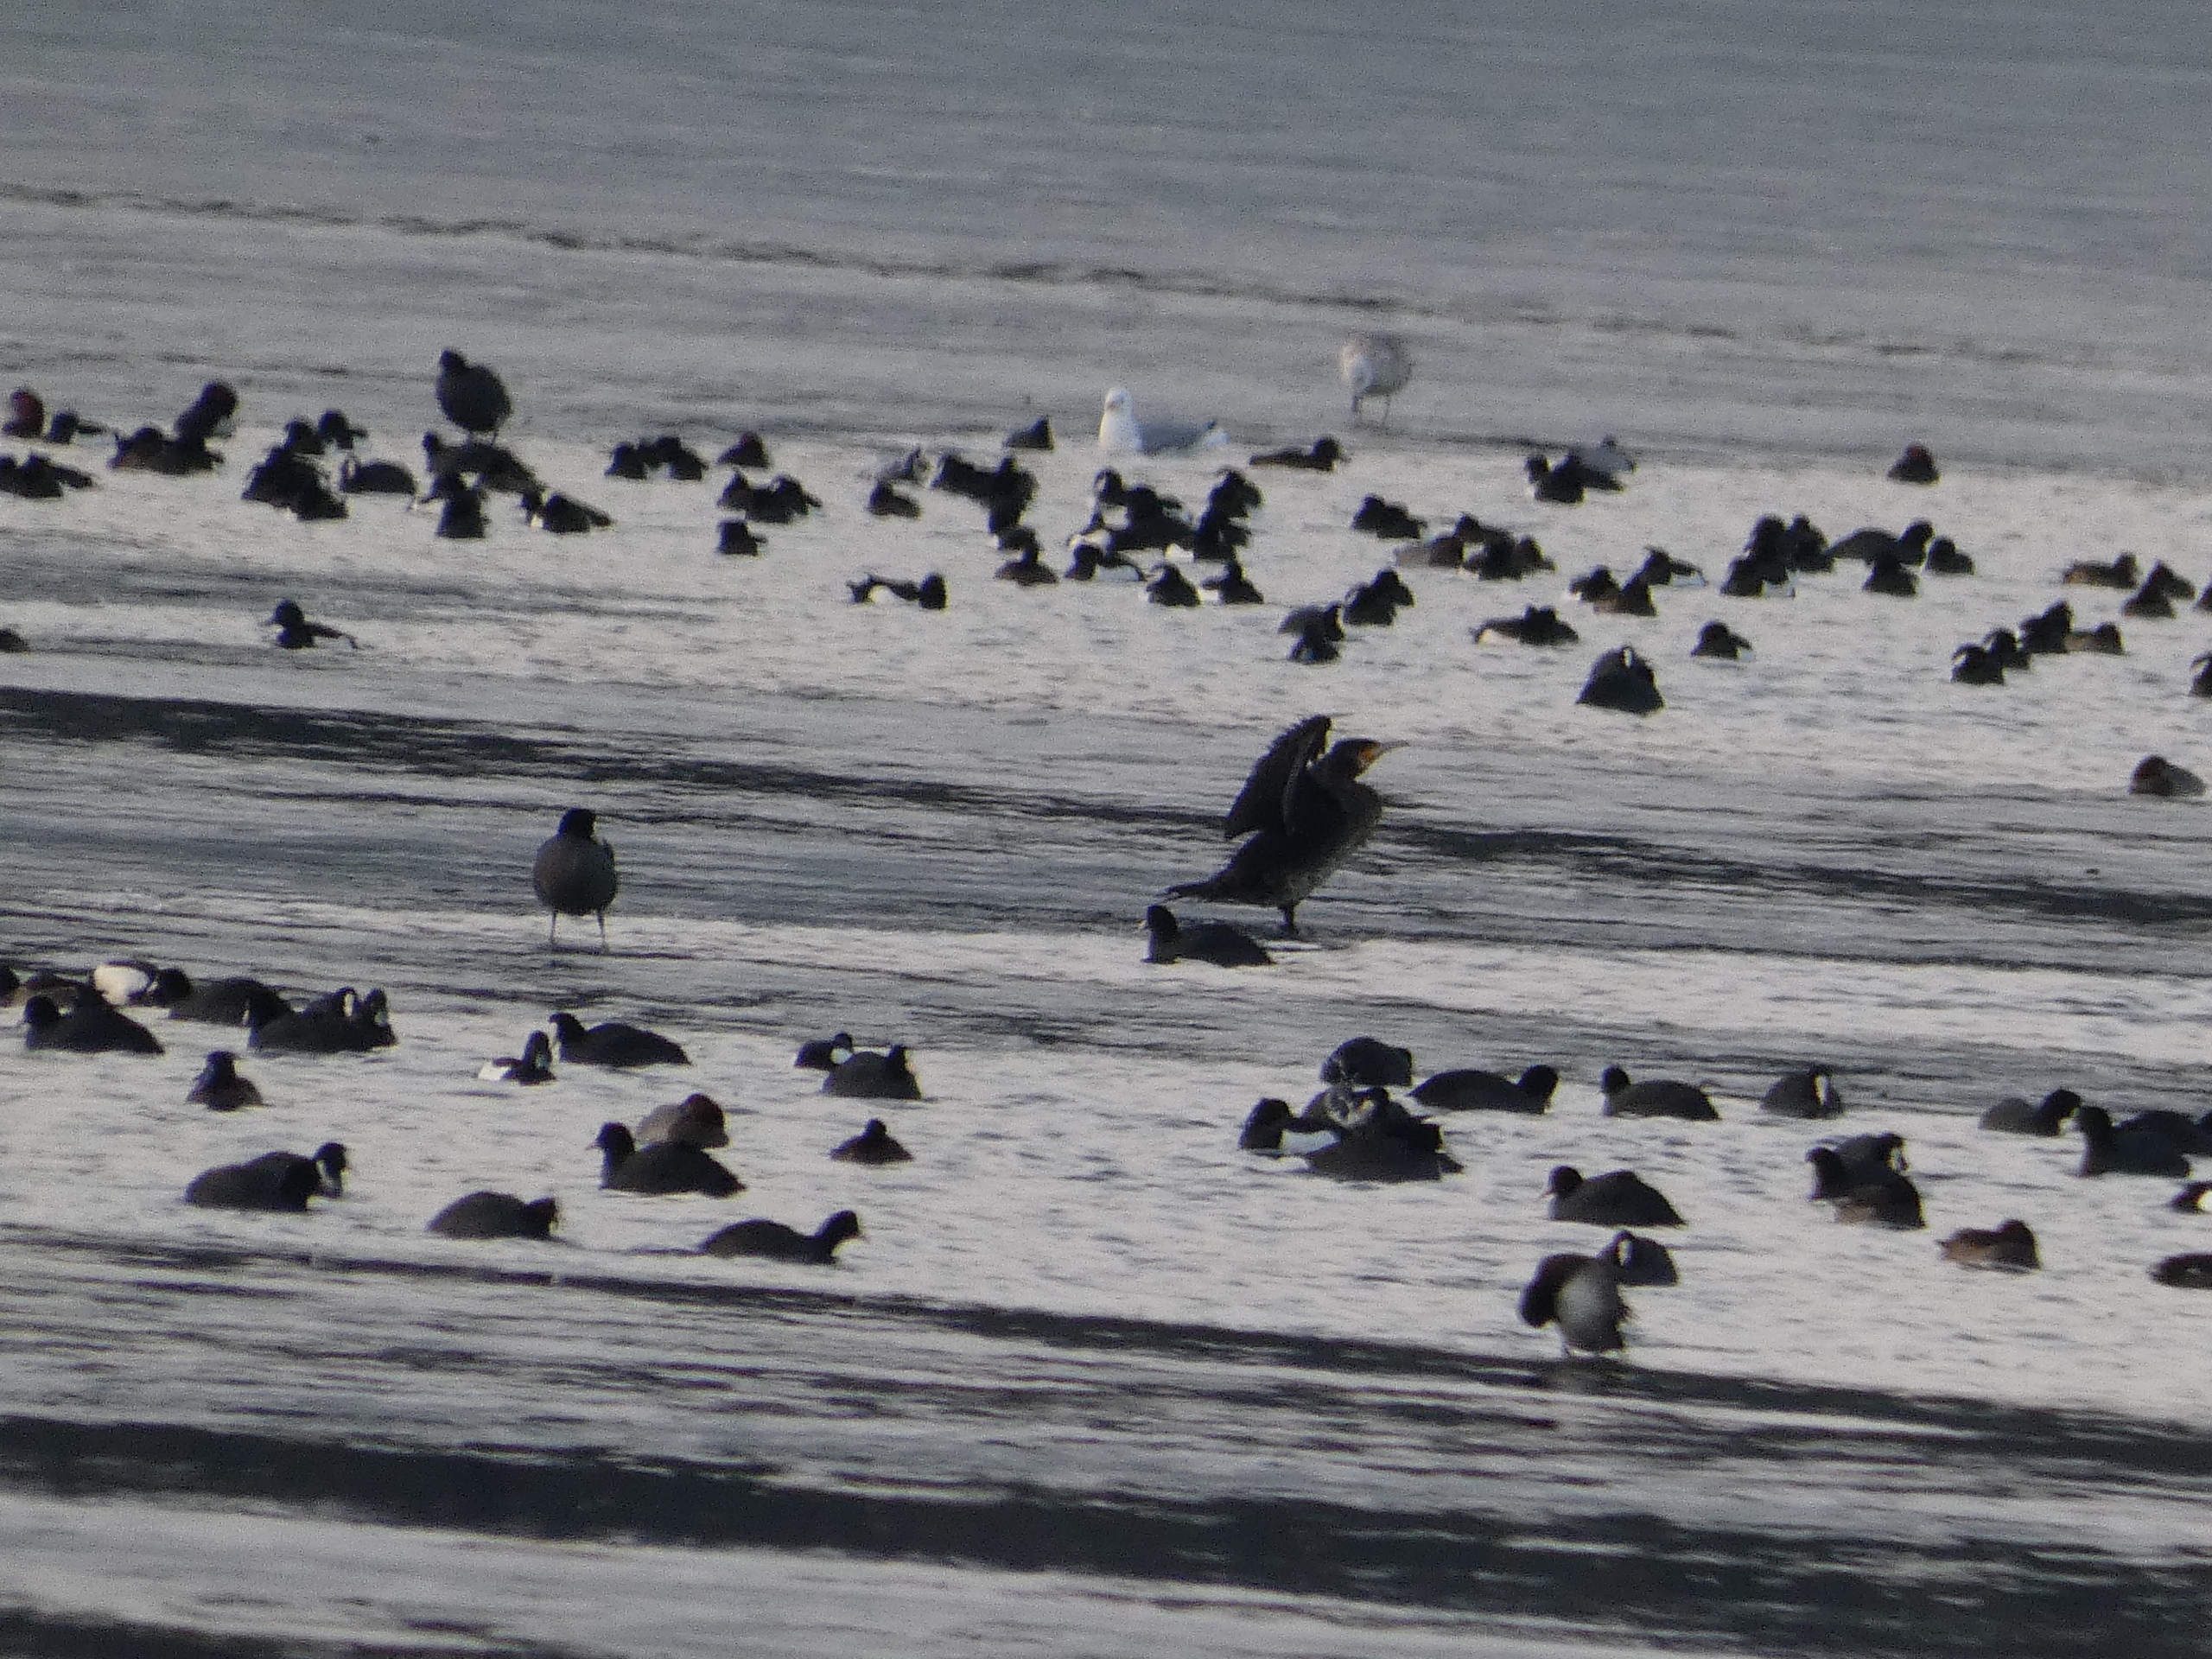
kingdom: Animalia
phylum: Chordata
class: Aves
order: Gruiformes
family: Rallidae
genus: Fulica
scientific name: Fulica atra
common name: Blishøne
